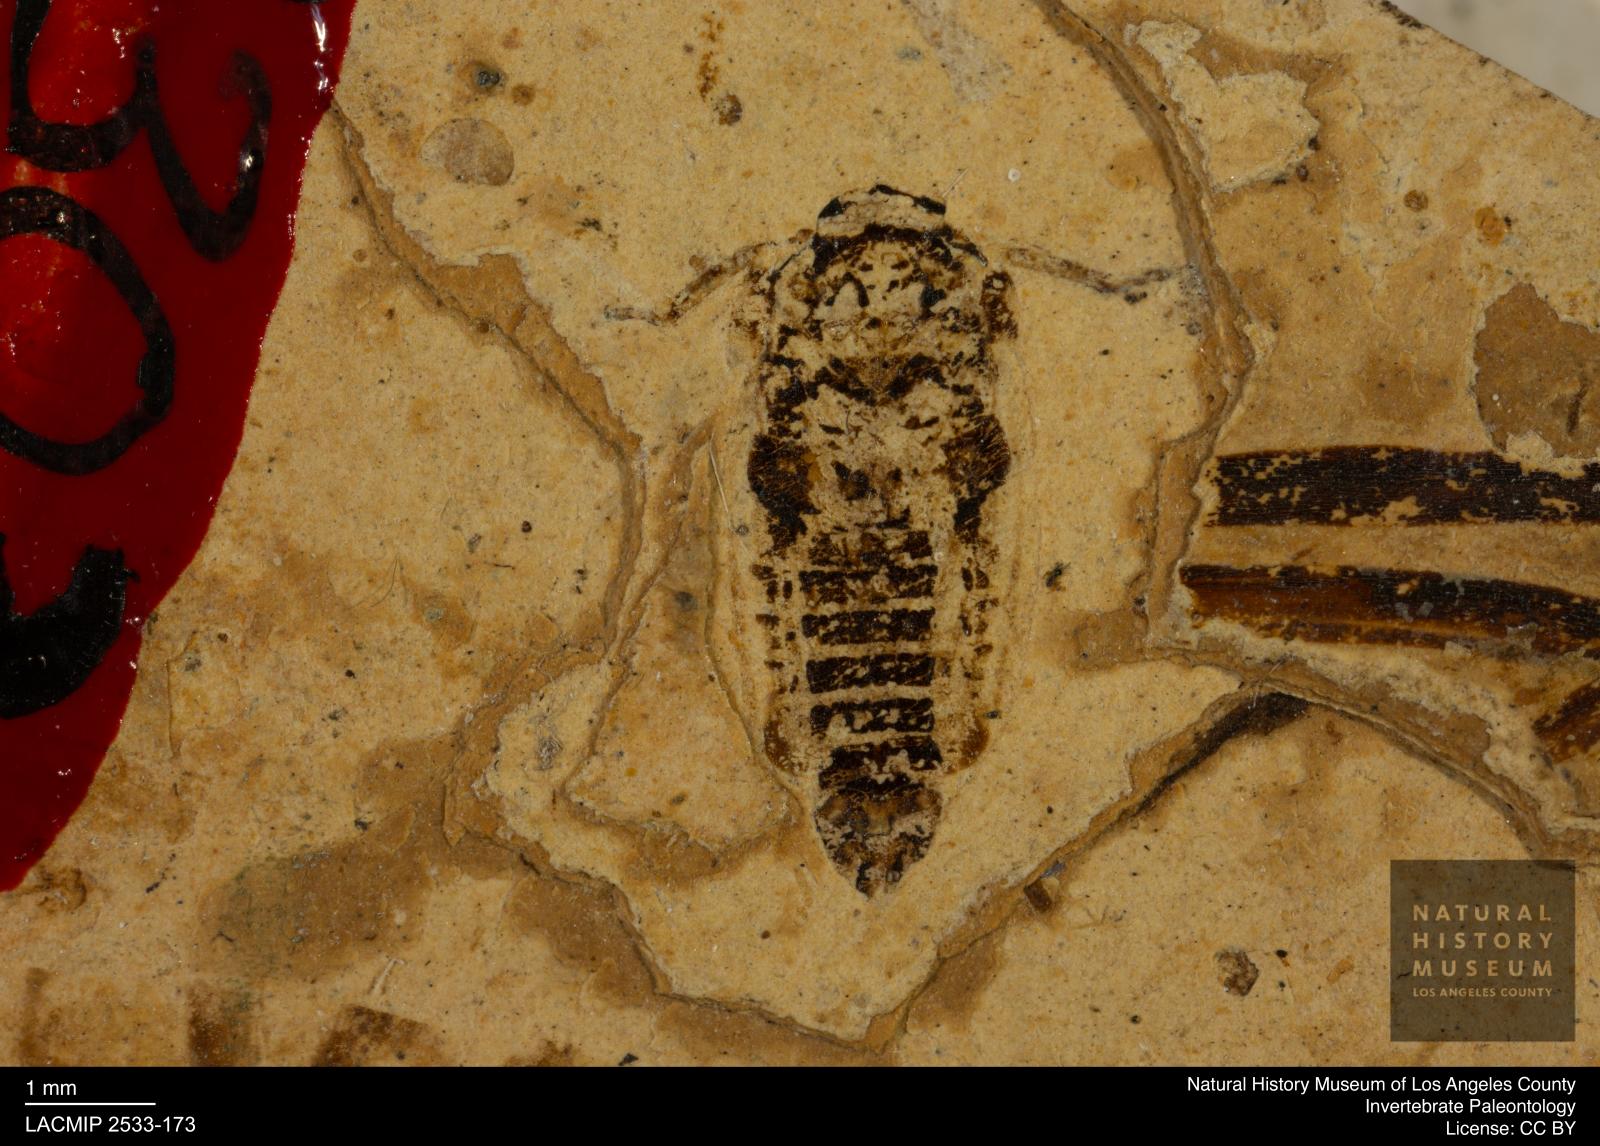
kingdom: Animalia
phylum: Arthropoda
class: Insecta
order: Hemiptera
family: Cicadellidae
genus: Gyponites
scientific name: Gyponites abdominalis
